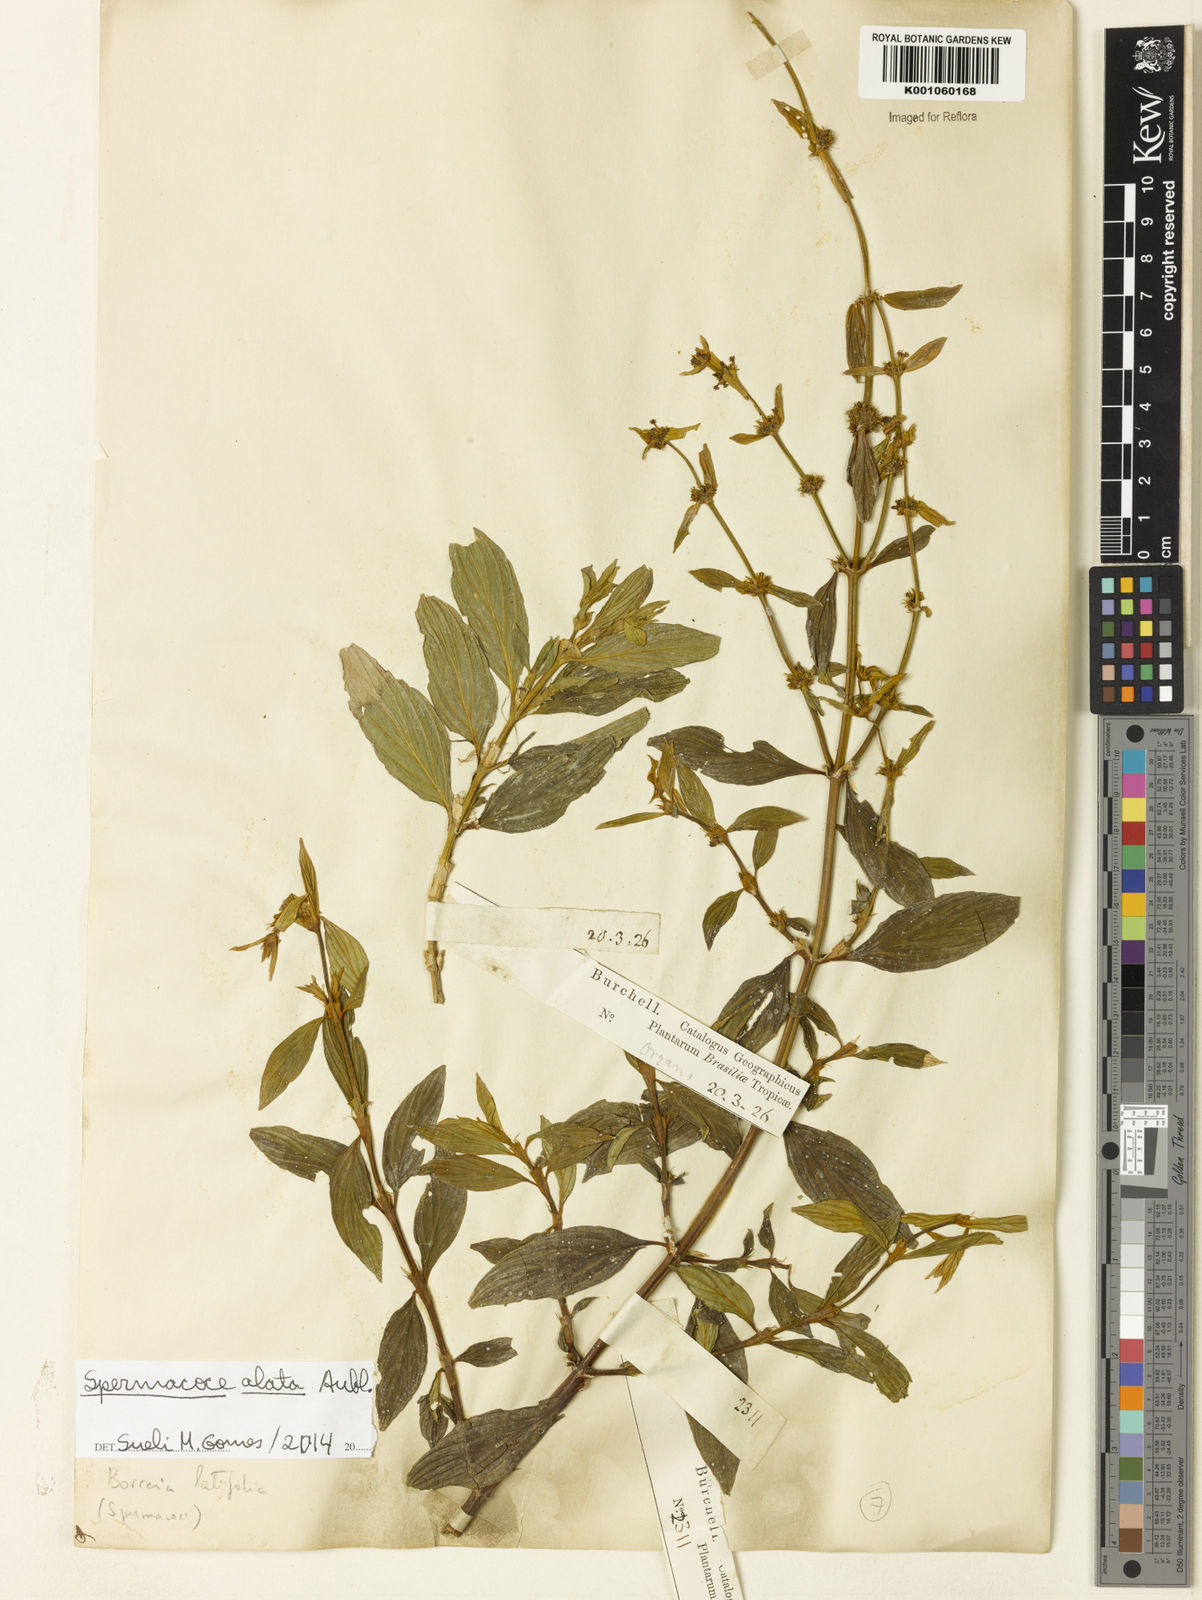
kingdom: Plantae
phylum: Tracheophyta
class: Magnoliopsida
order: Gentianales
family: Rubiaceae
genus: Spermacoce
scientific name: Spermacoce
